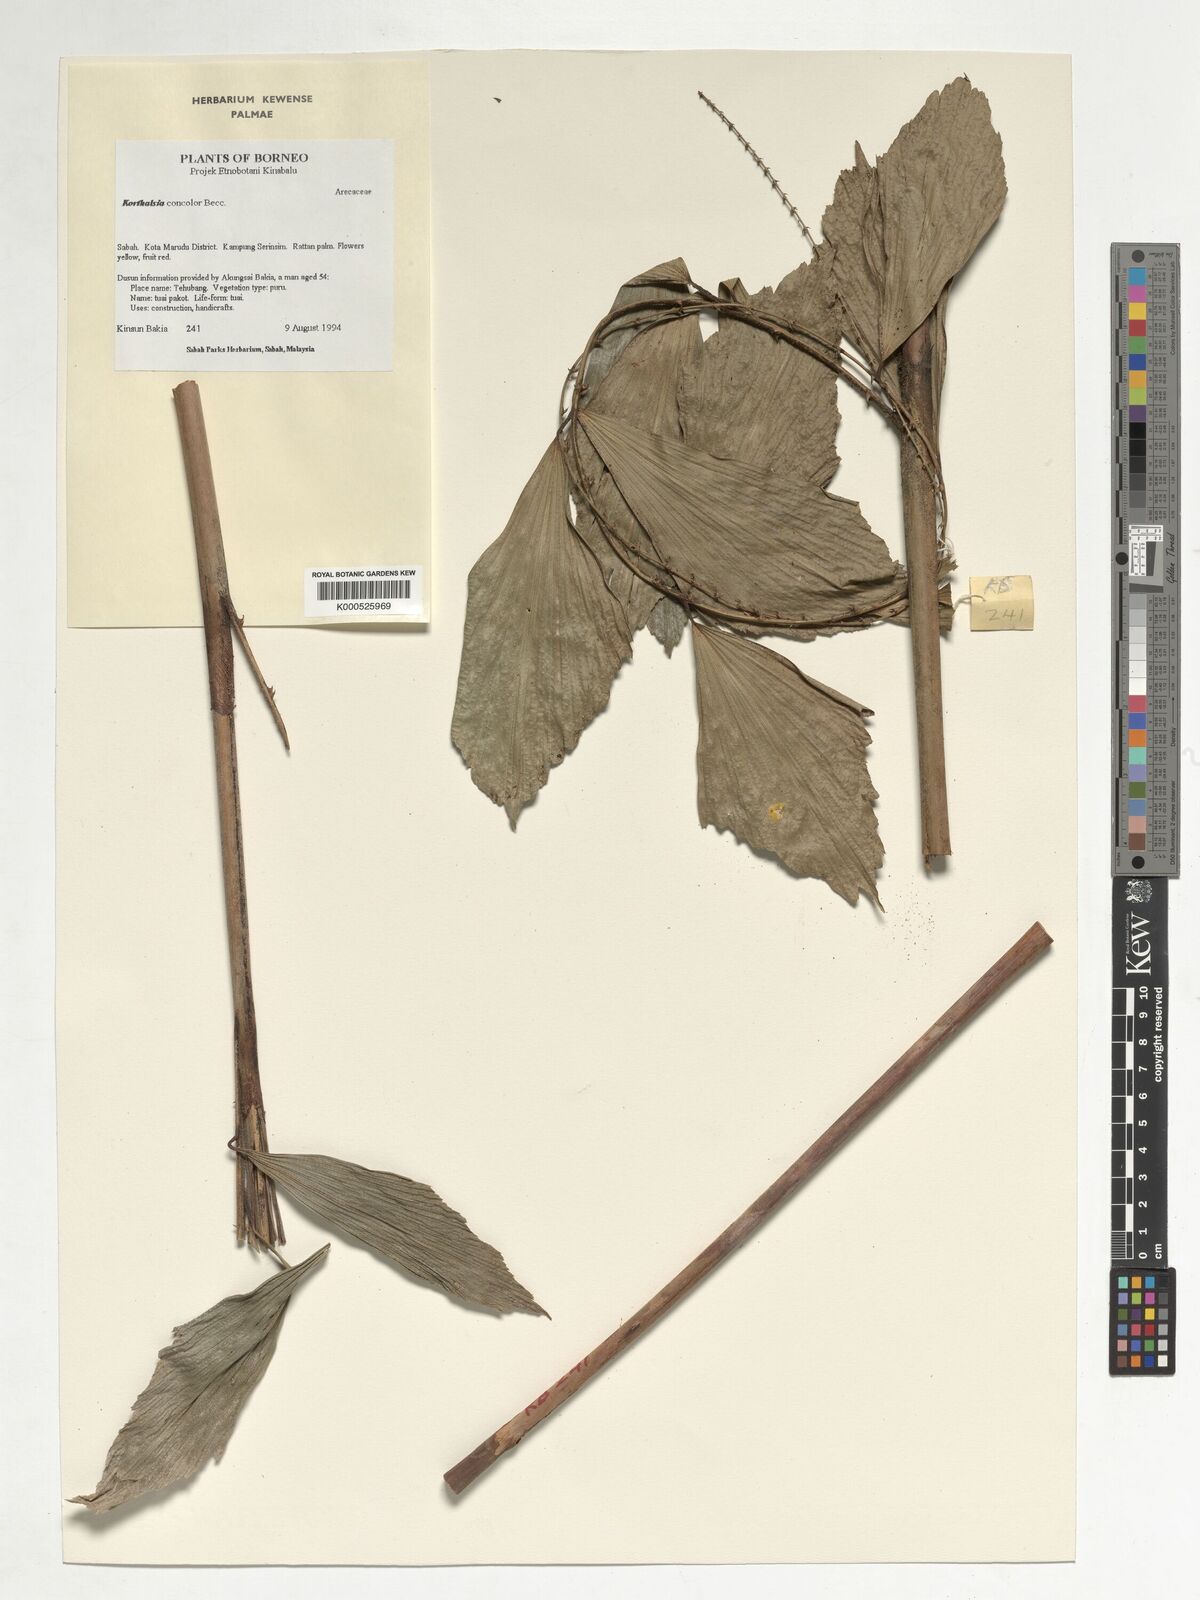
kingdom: Plantae
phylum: Tracheophyta
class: Liliopsida
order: Arecales
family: Arecaceae
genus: Korthalsia
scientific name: Korthalsia concolor
